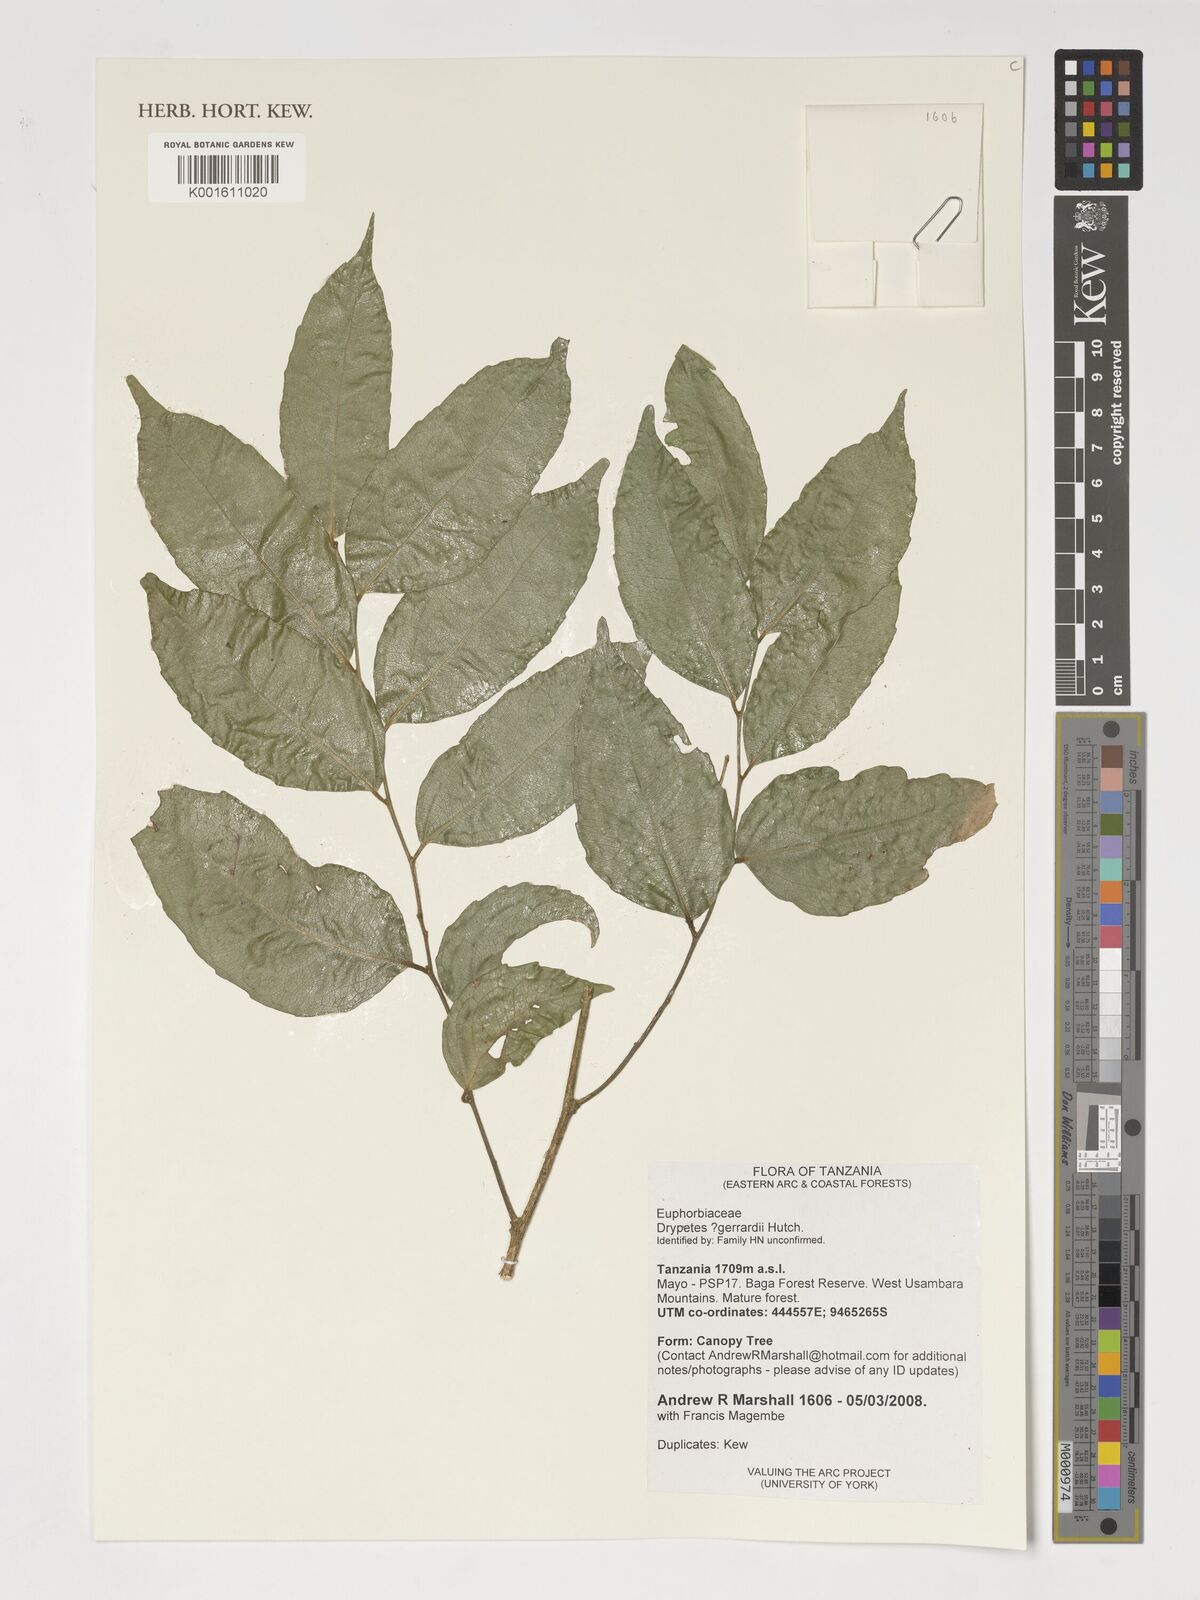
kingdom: Plantae
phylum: Tracheophyta
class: Magnoliopsida
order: Malpighiales
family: Putranjivaceae
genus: Drypetes
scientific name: Drypetes gerrardii
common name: Forest ironplum
